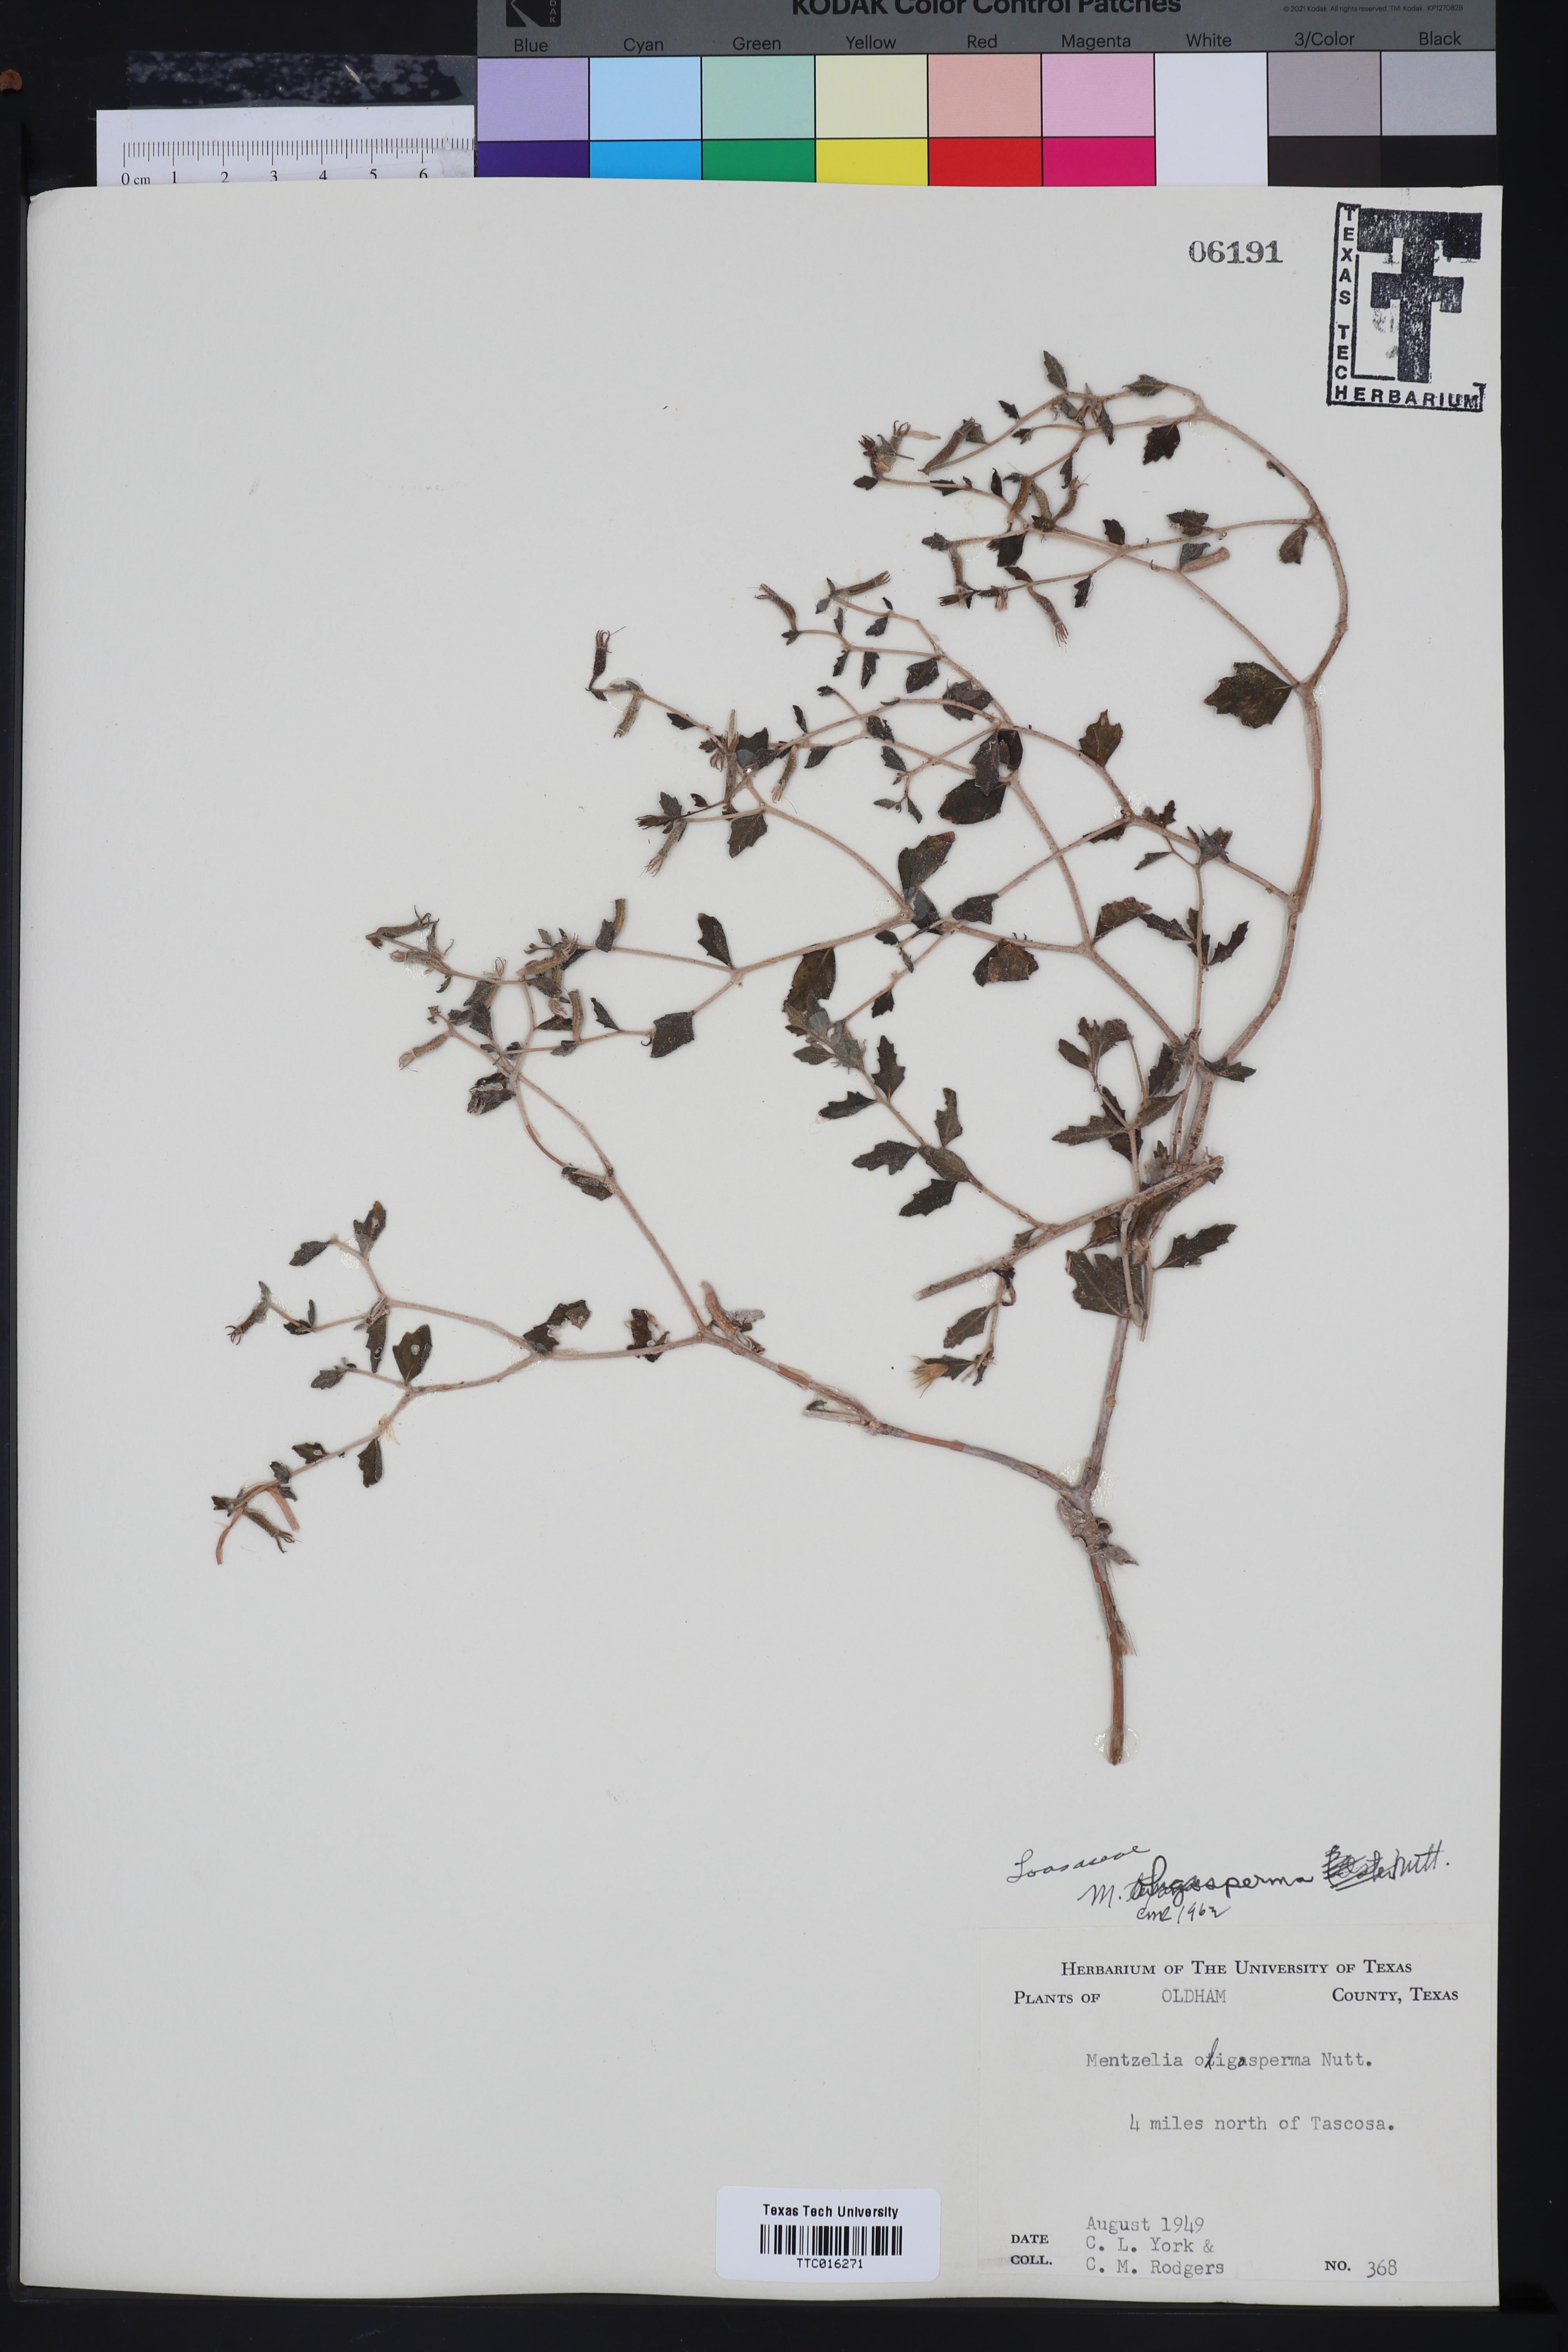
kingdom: Plantae
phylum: Tracheophyta
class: Magnoliopsida
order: Cornales
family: Loasaceae
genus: Mentzelia
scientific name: Mentzelia oligosperma
